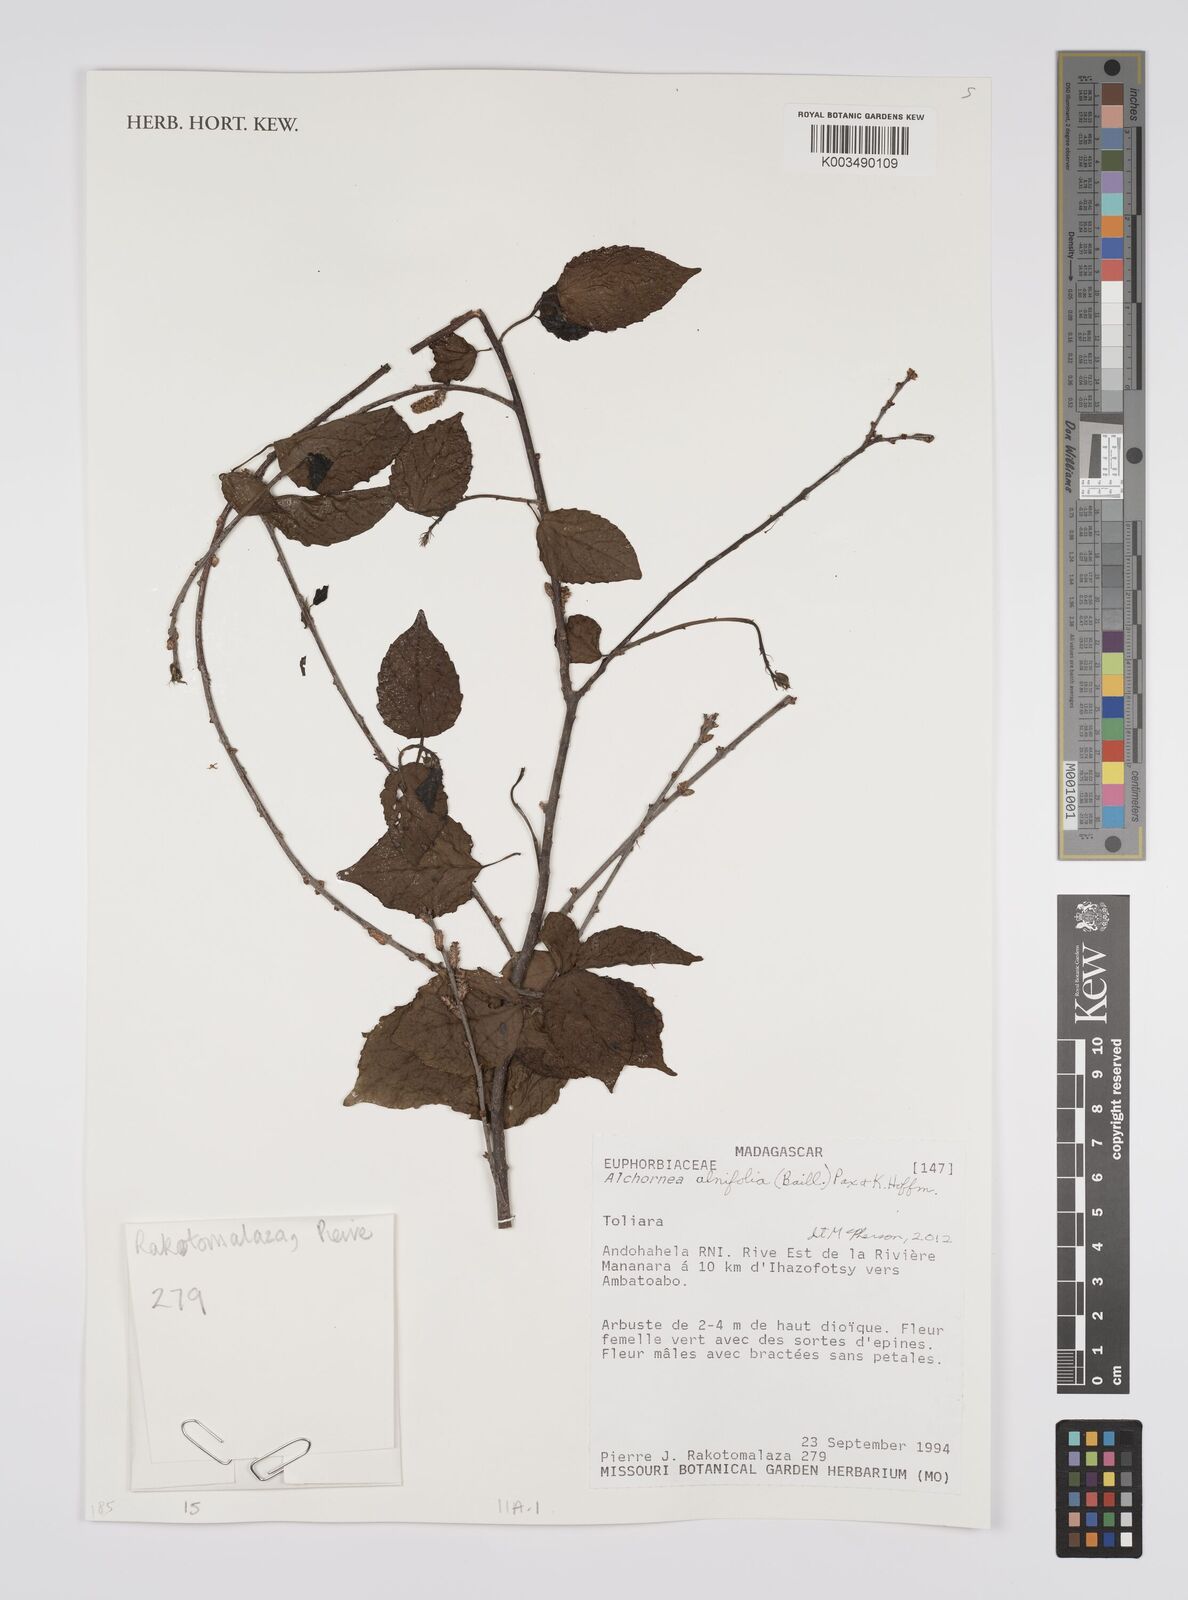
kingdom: Plantae
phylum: Tracheophyta
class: Magnoliopsida
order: Malpighiales
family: Euphorbiaceae
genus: Alchornea
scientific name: Alchornea alnifolia
